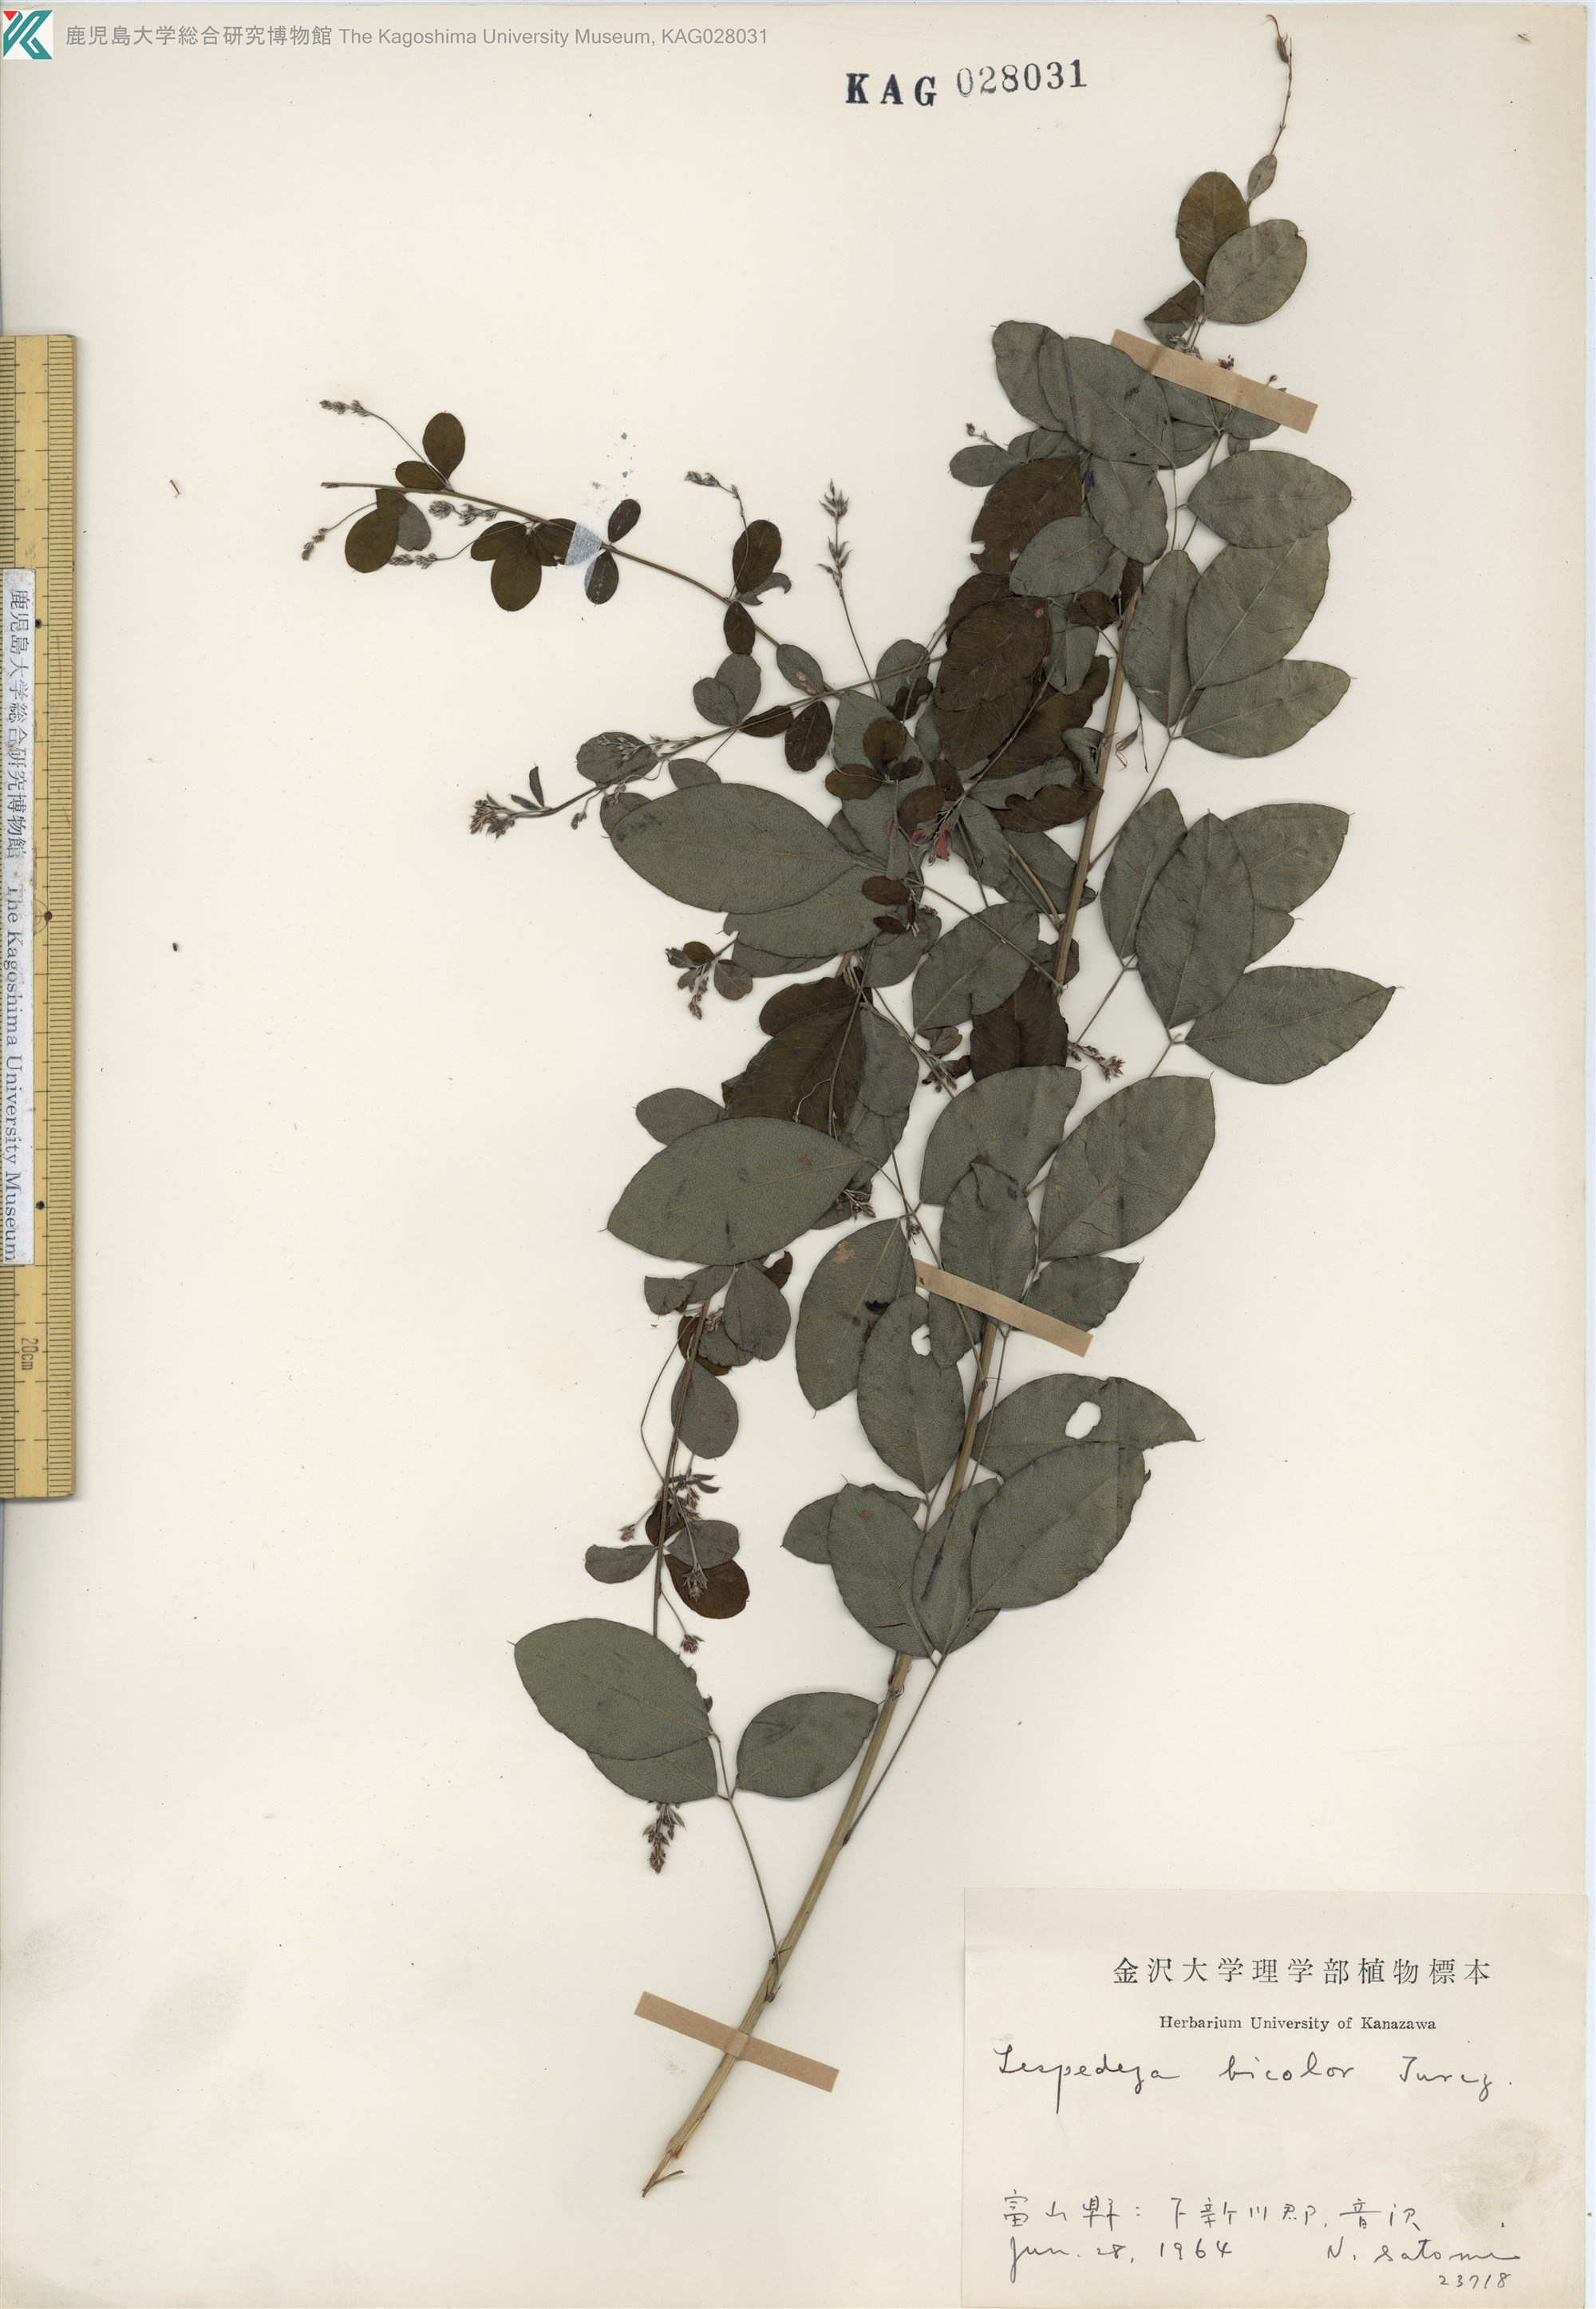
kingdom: Plantae
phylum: Tracheophyta
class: Magnoliopsida
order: Fabales
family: Fabaceae
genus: Lespedeza
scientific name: Lespedeza bicolor
